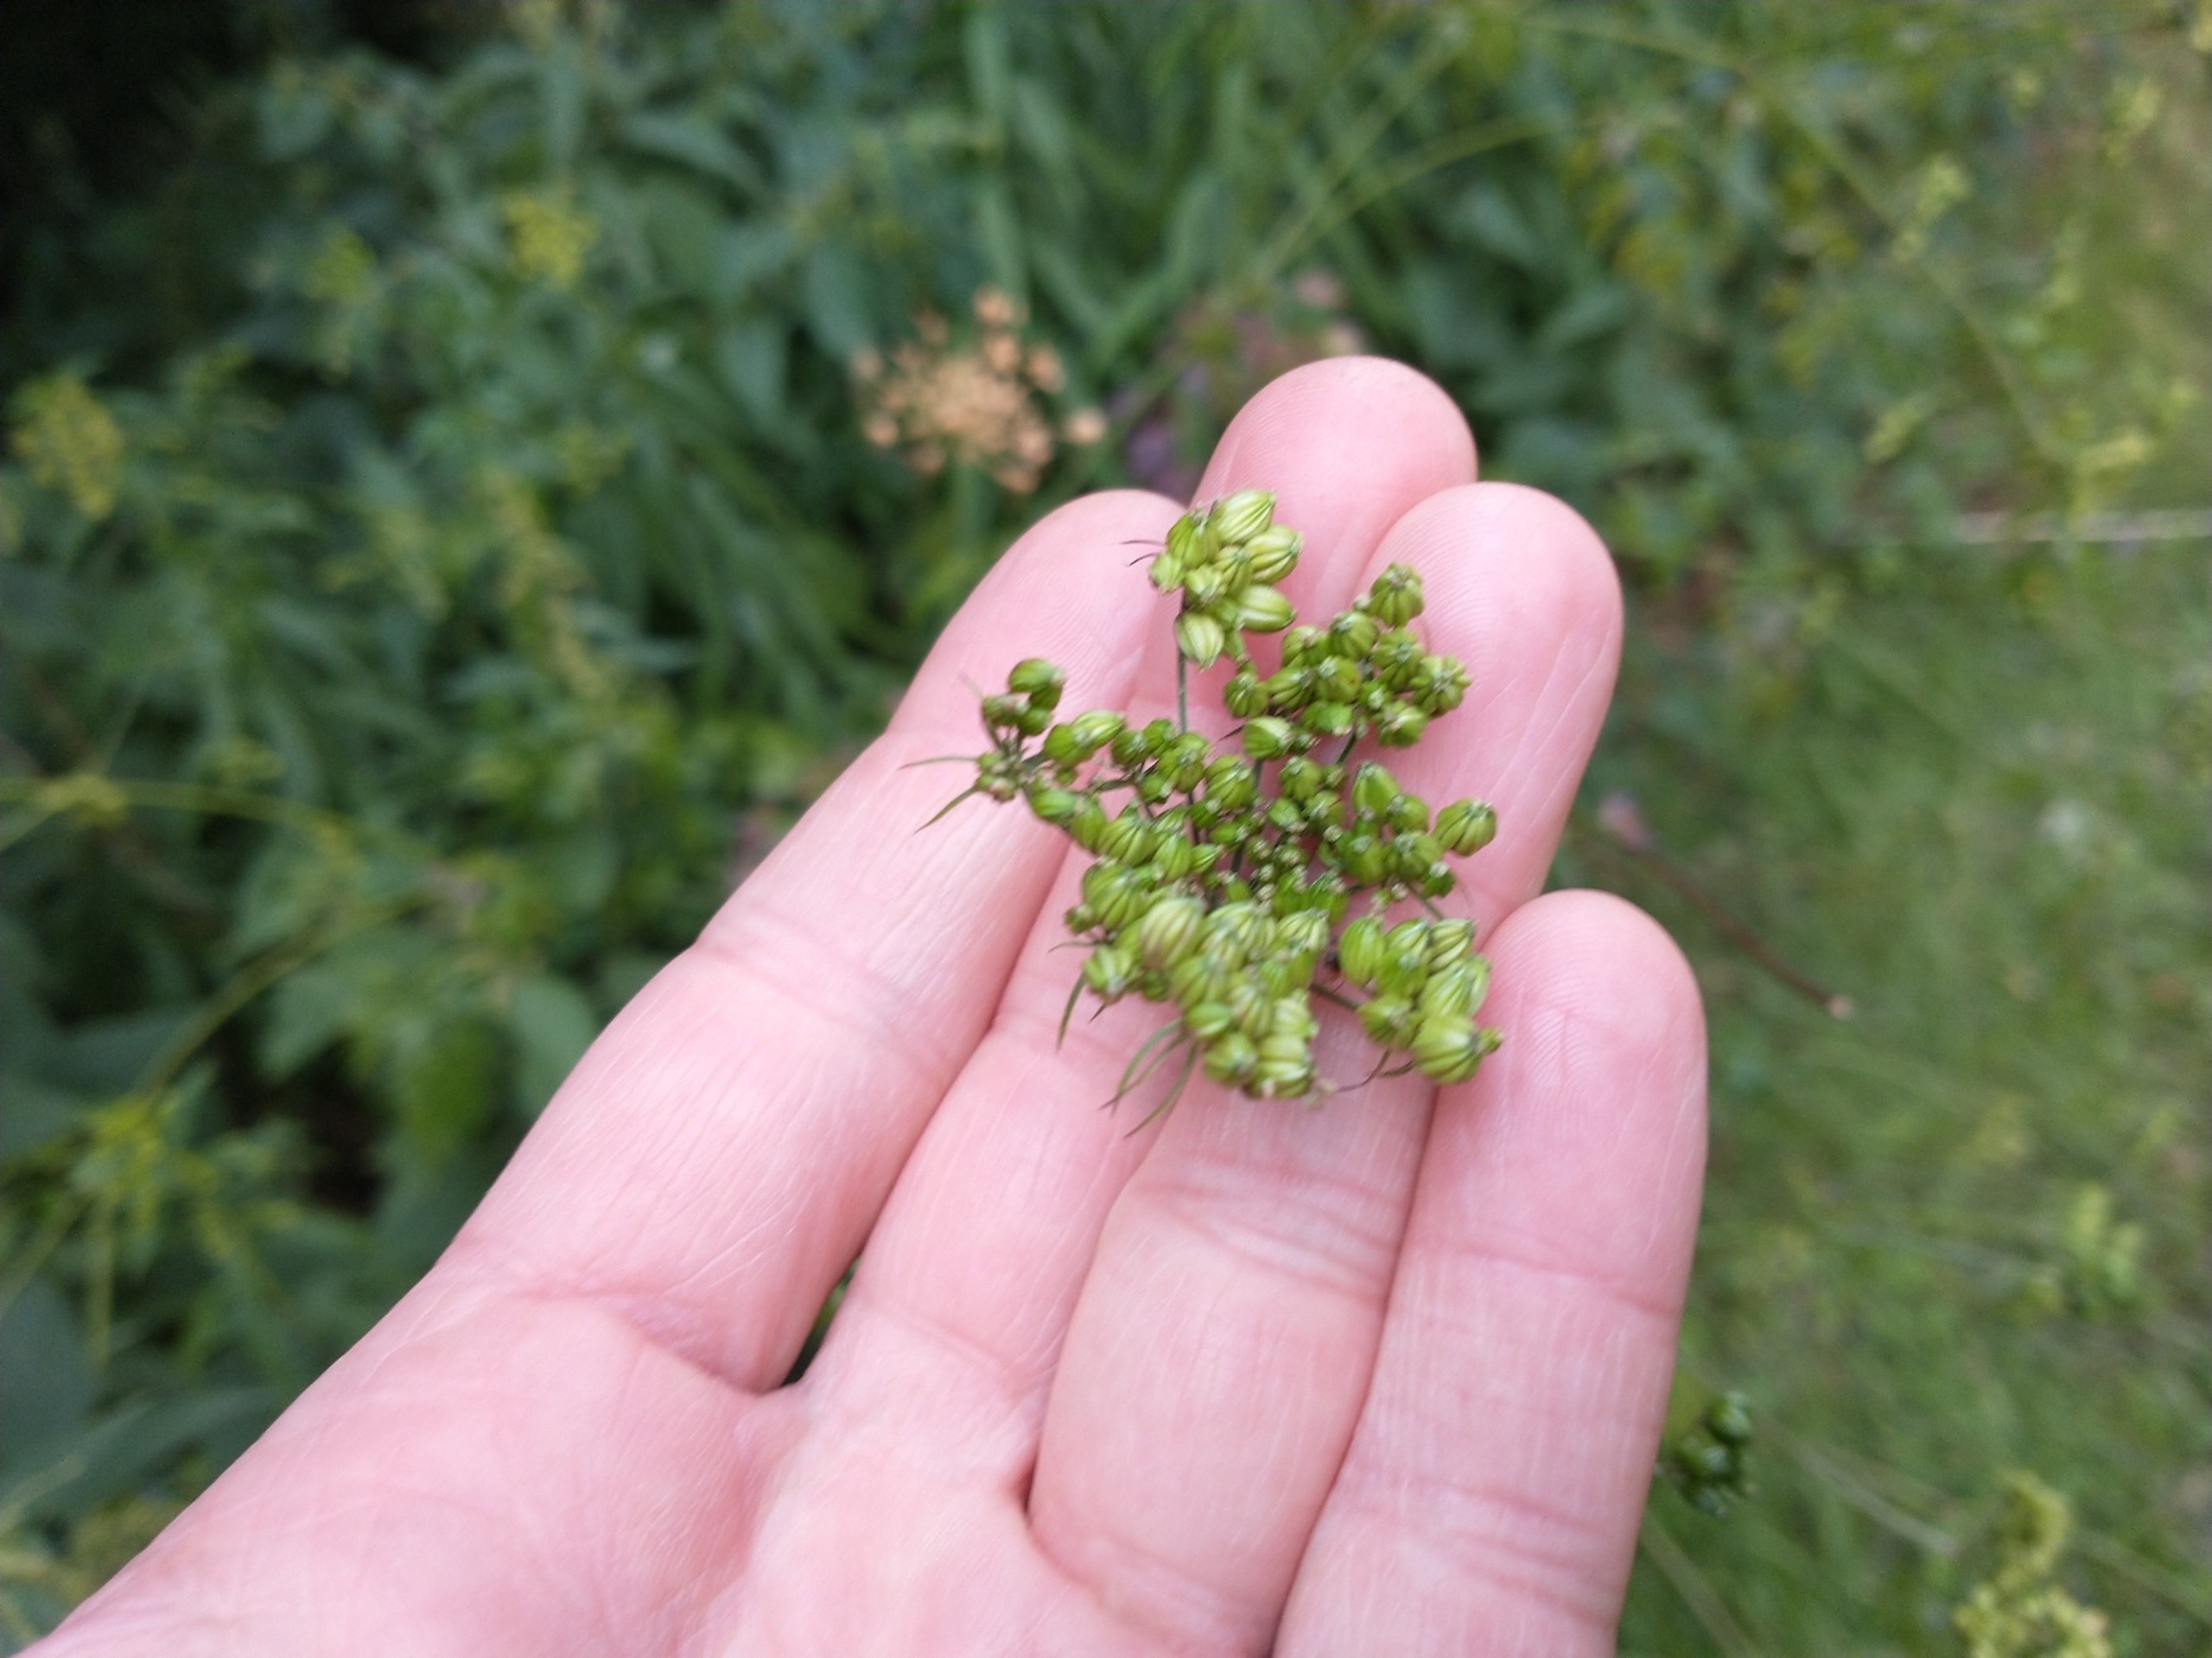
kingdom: Plantae
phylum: Tracheophyta
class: Magnoliopsida
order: Apiales
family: Apiaceae
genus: Aethusa
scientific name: Aethusa cynapium
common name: Hundepersille
